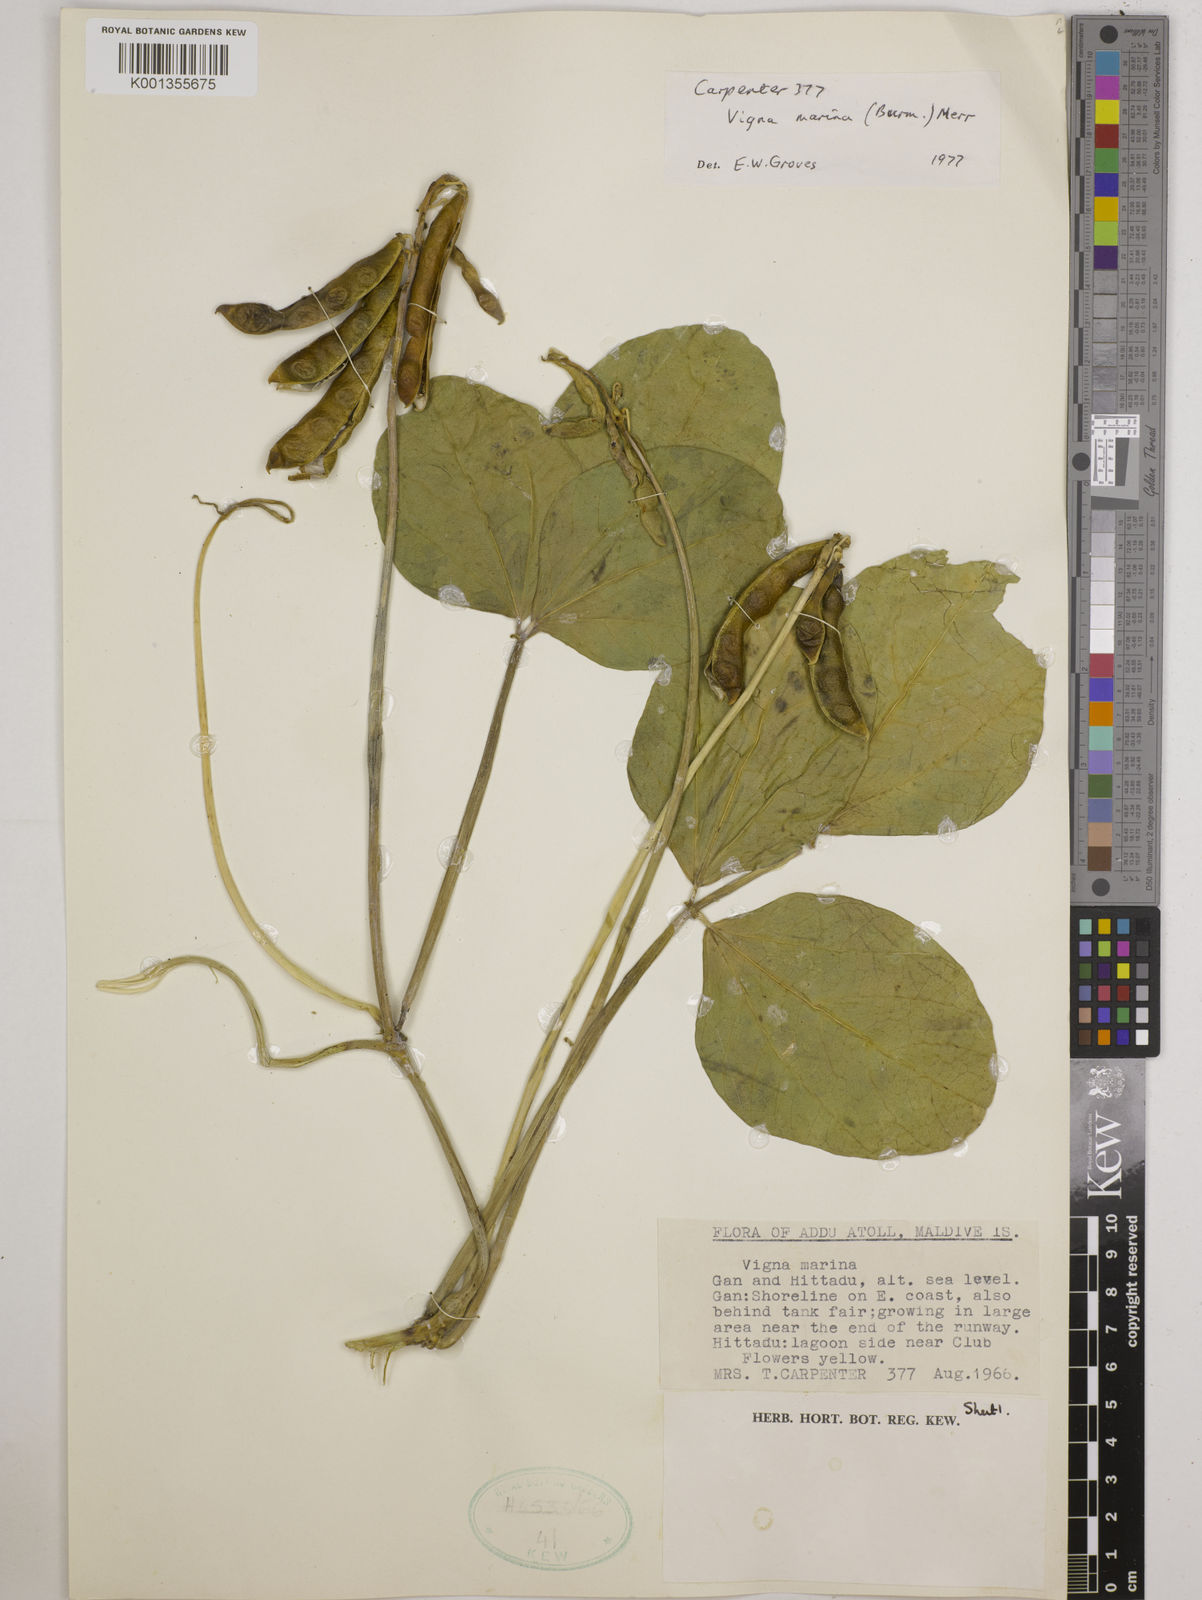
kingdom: Plantae
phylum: Tracheophyta
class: Magnoliopsida
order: Fabales
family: Fabaceae
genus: Vigna
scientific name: Vigna marina
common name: Dune-bean
